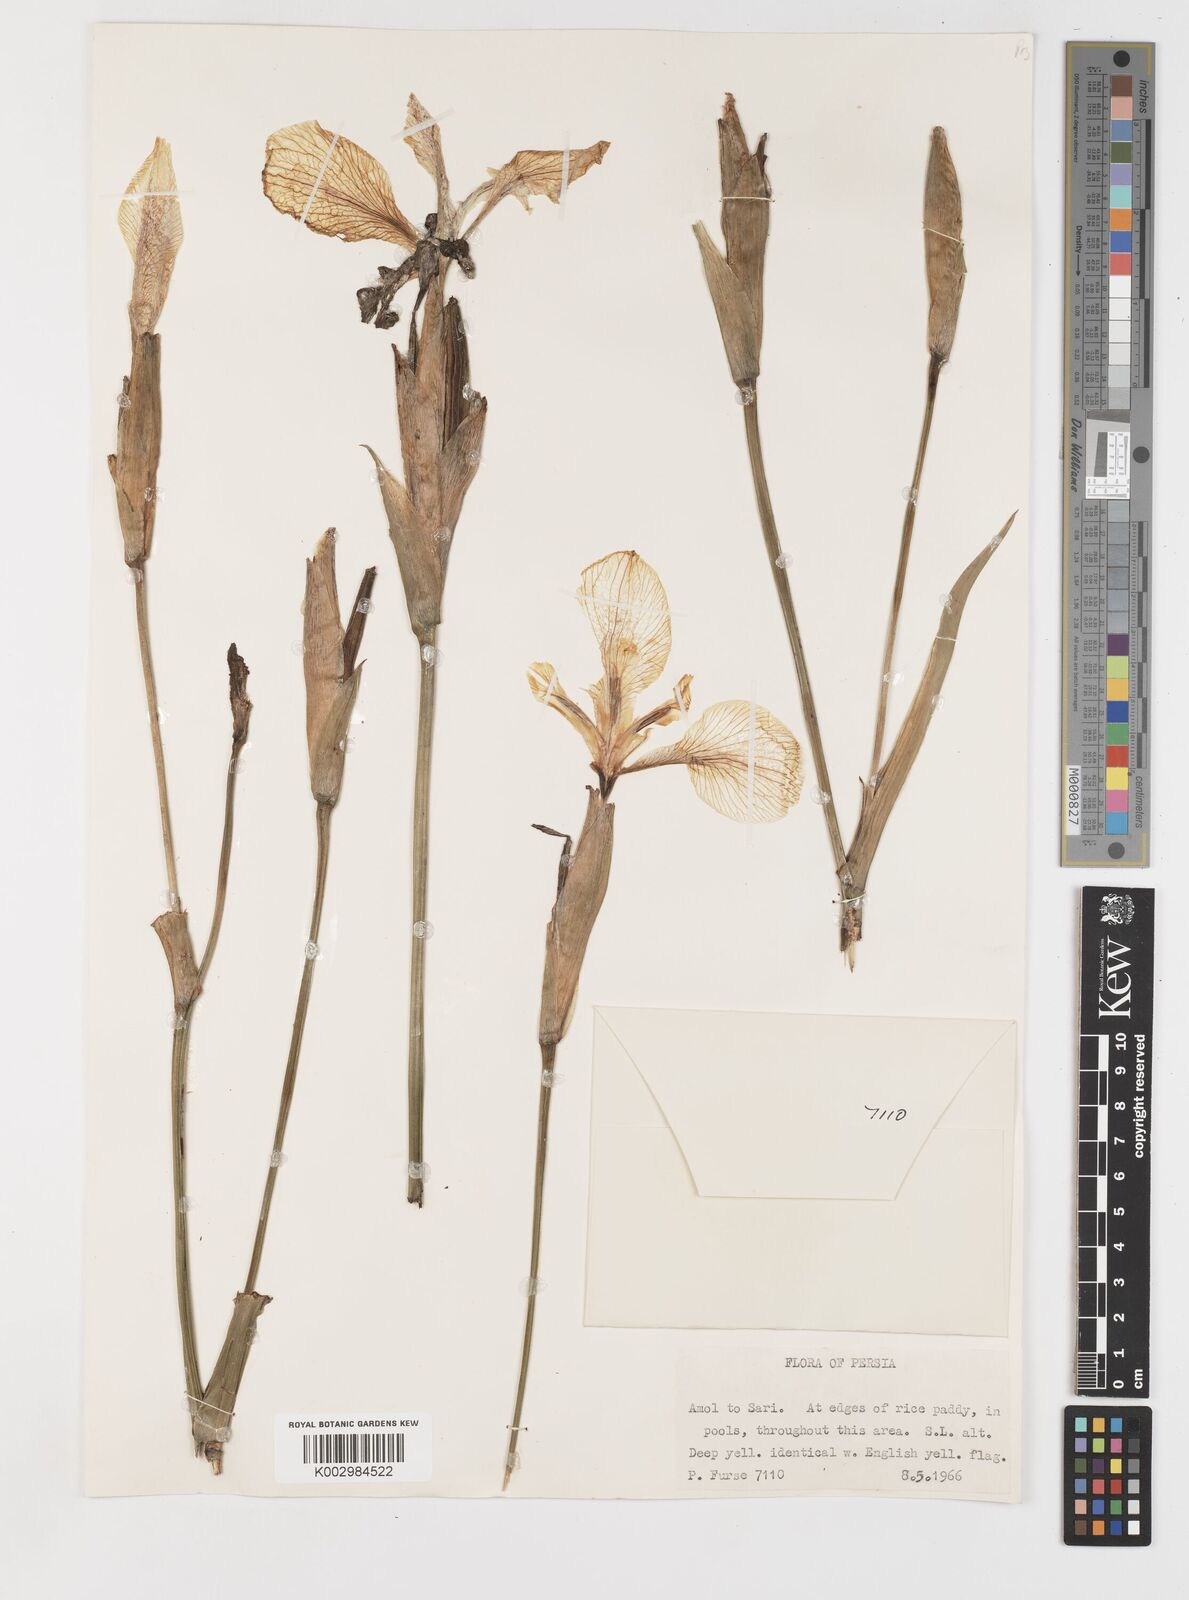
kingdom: Plantae
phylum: Tracheophyta
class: Liliopsida
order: Asparagales
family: Iridaceae
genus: Iris
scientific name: Iris pseudacorus
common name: Yellow flag
